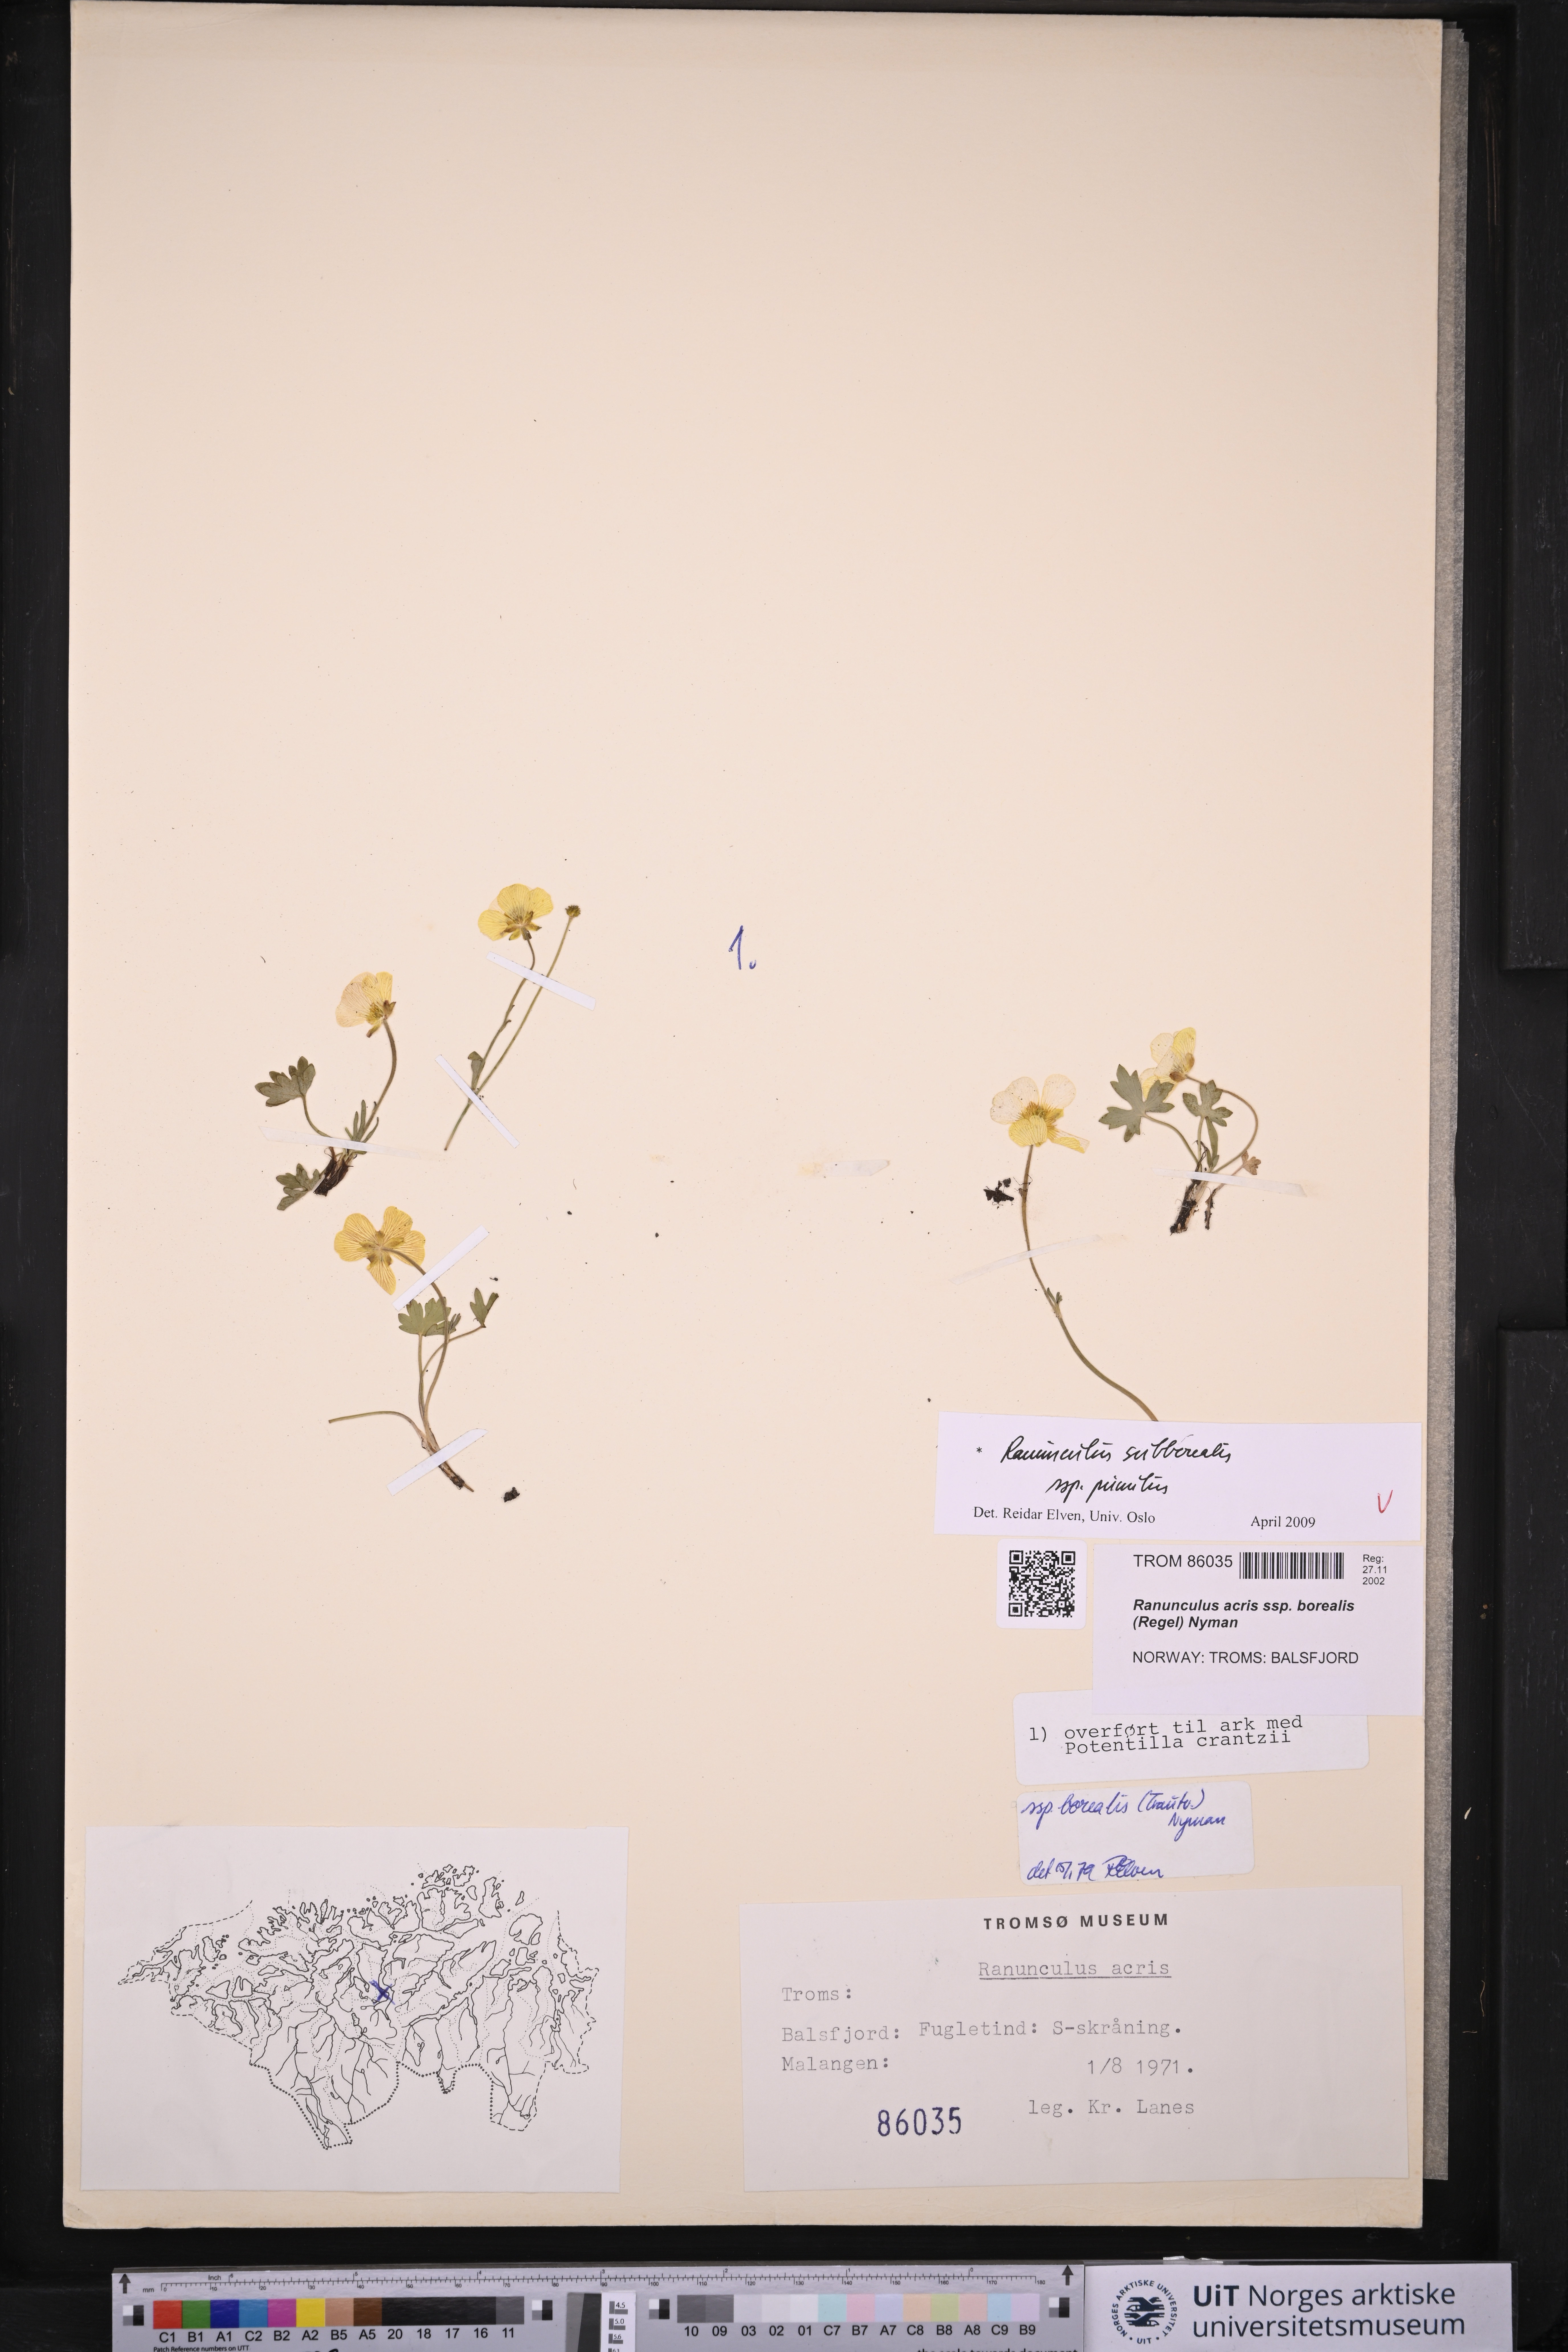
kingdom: Plantae
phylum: Tracheophyta
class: Magnoliopsida
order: Ranunculales
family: Ranunculaceae
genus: Ranunculus
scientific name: Ranunculus
